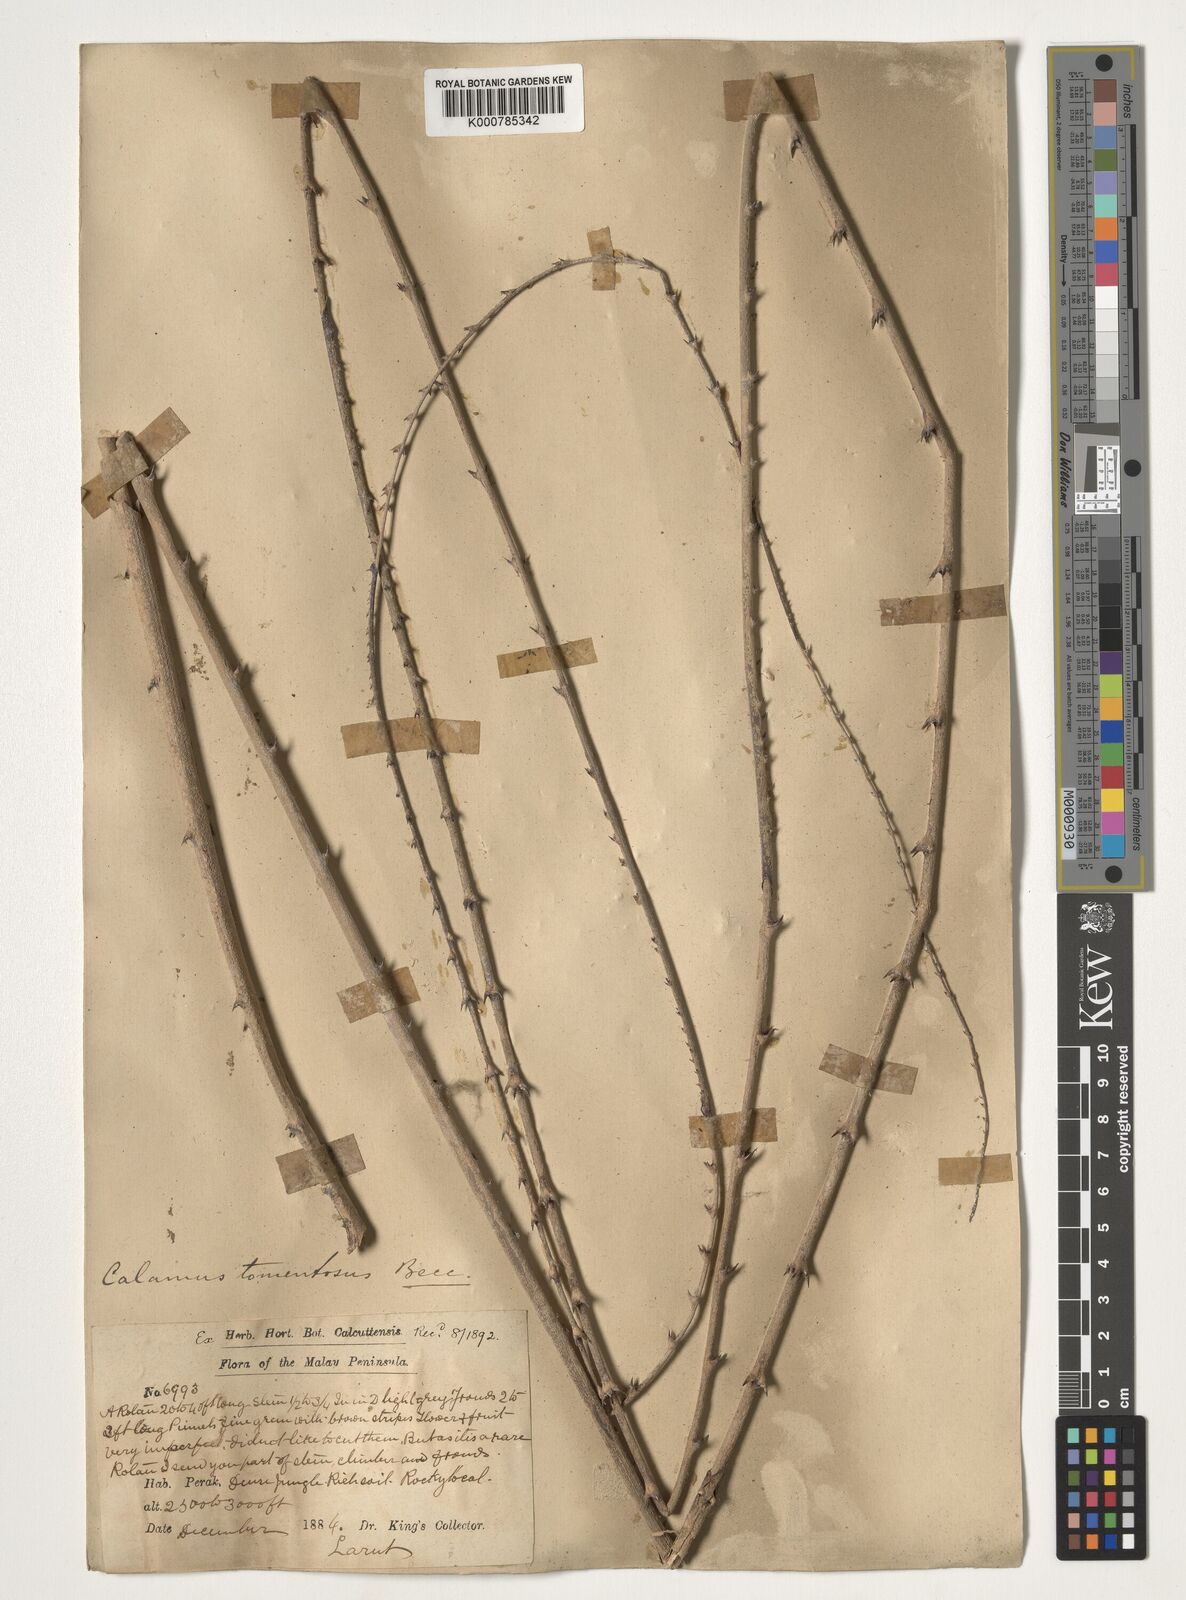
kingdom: Plantae
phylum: Tracheophyta
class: Liliopsida
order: Arecales
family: Arecaceae
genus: Calamus
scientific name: Calamus rhomboideus
